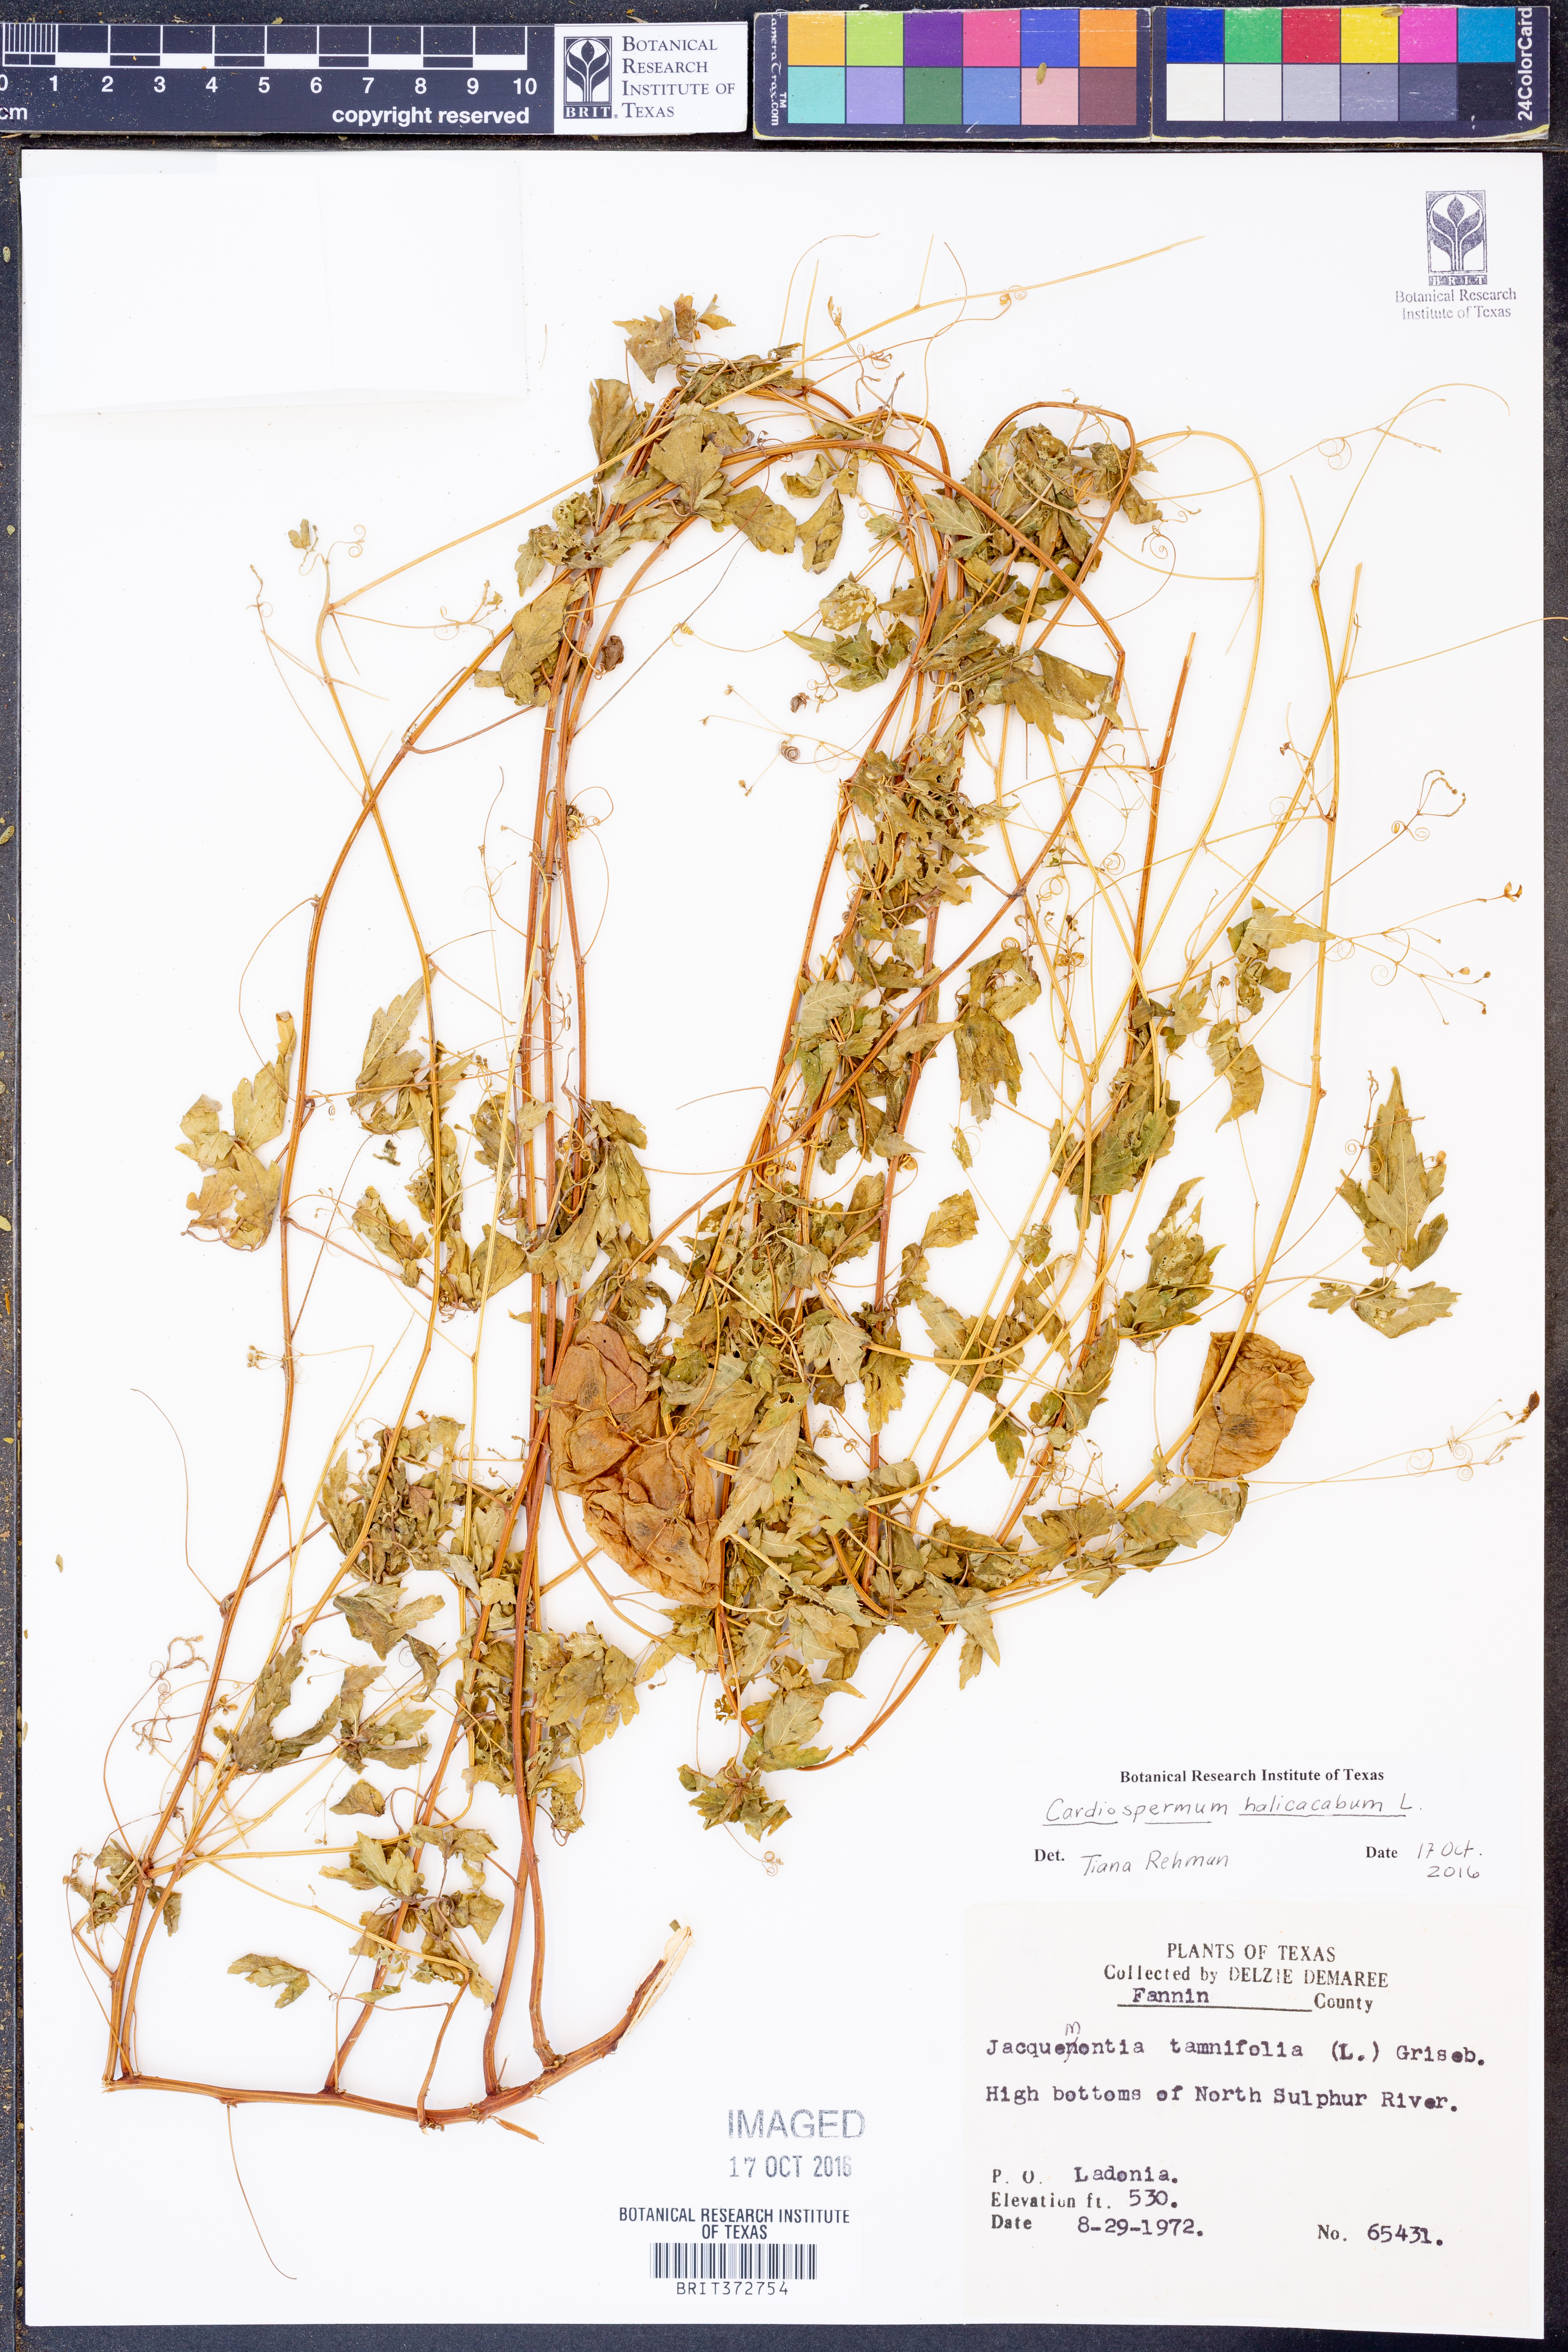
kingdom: Plantae
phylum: Tracheophyta
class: Magnoliopsida
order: Sapindales
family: Sapindaceae
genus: Cardiospermum
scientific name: Cardiospermum halicacabum
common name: Balloon vine
